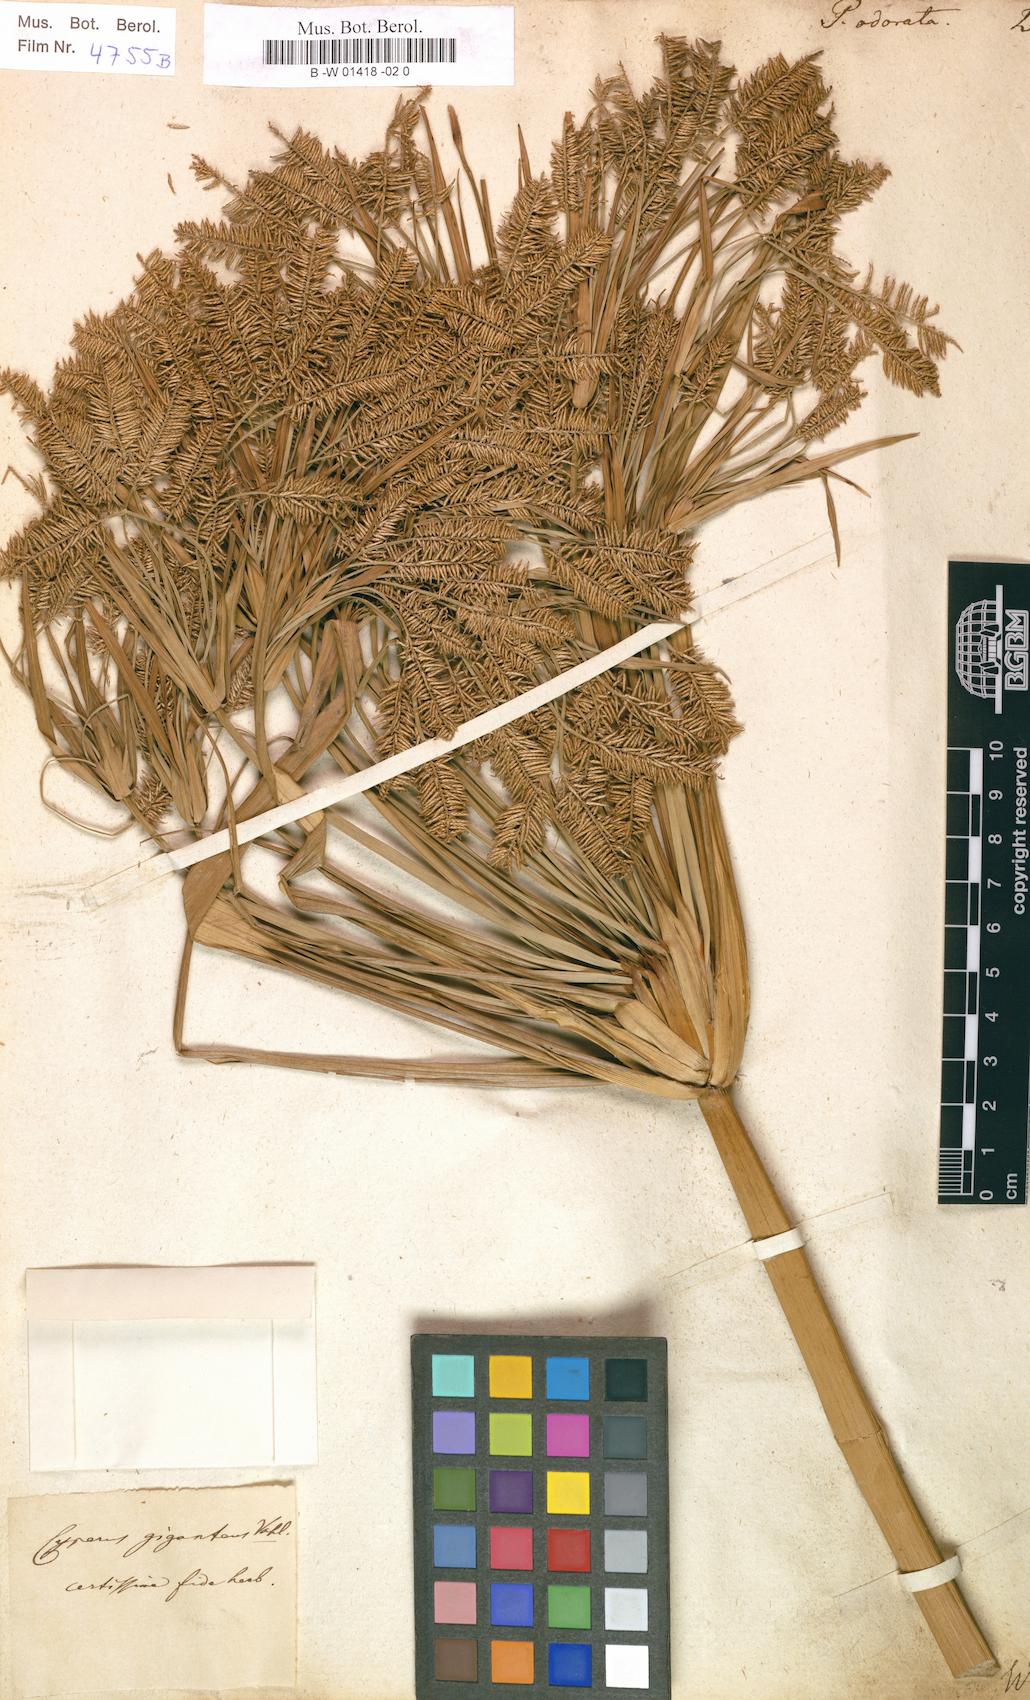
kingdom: Plantae
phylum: Tracheophyta
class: Liliopsida
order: Poales
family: Cyperaceae
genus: Cyperus
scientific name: Cyperus odoratus
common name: Fragrant flatsedge
